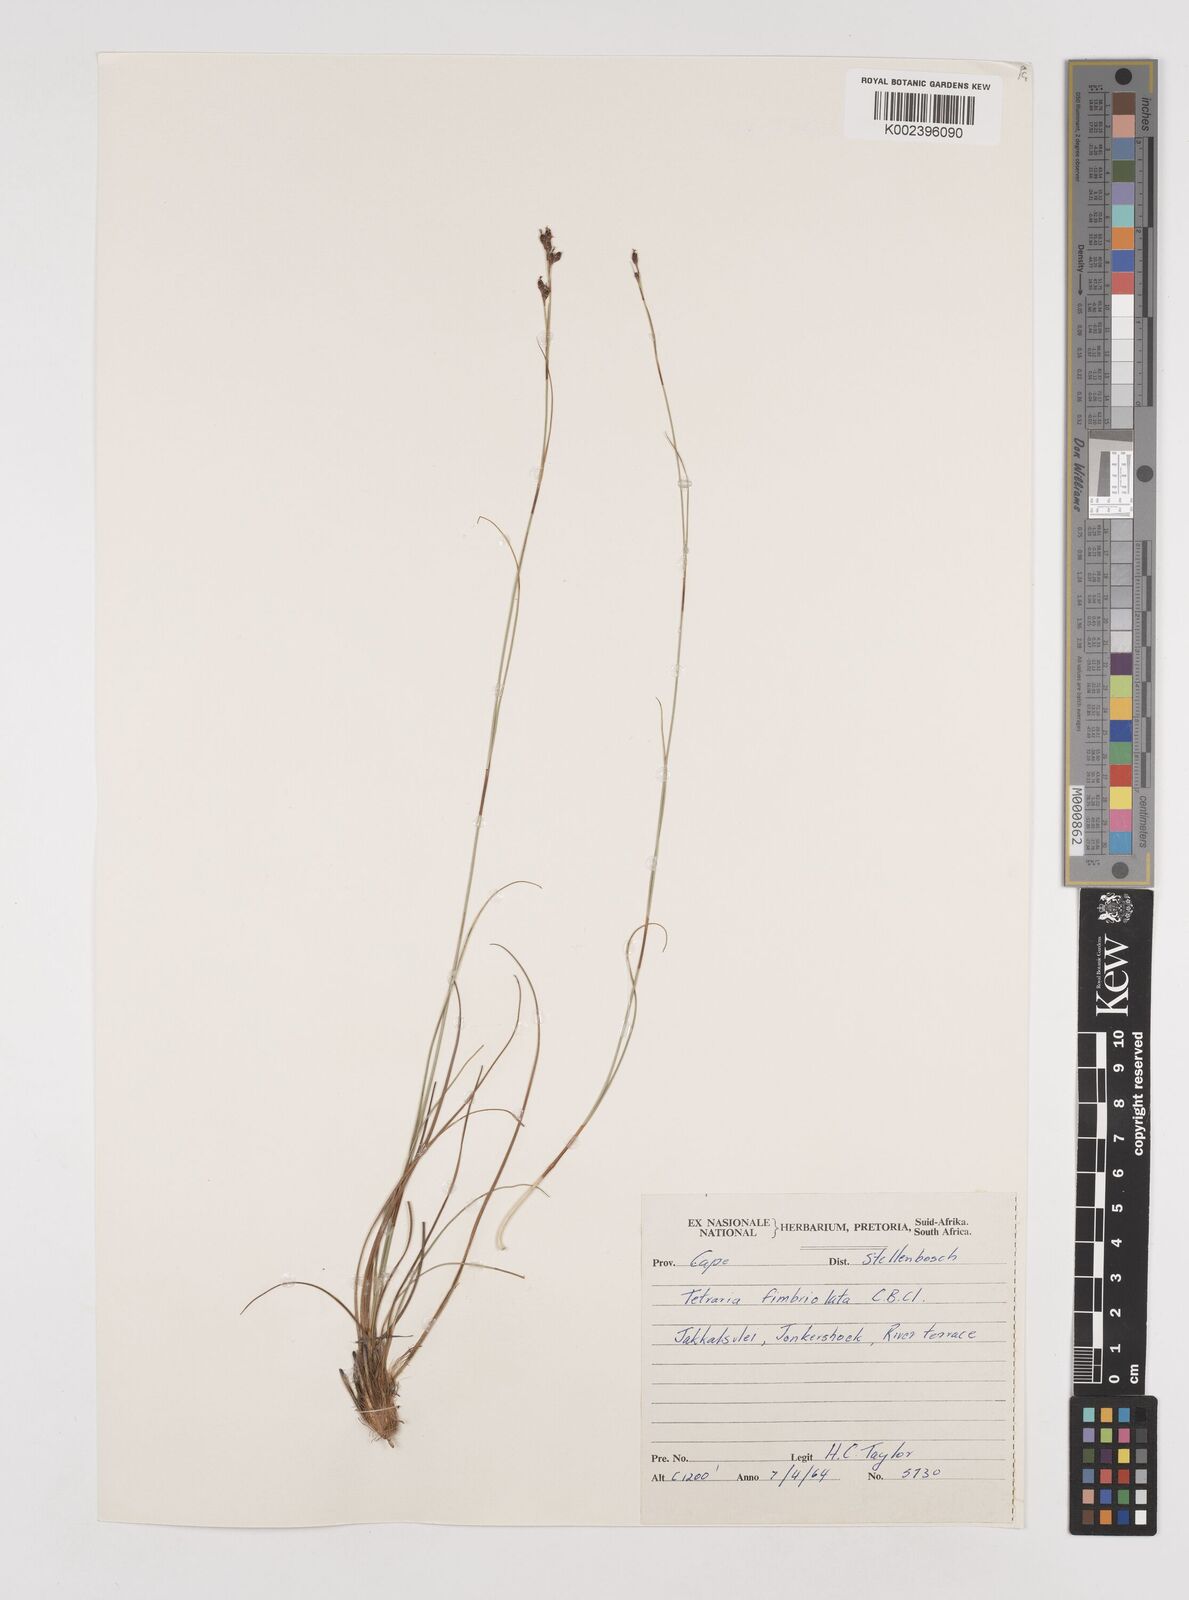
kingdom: Plantae
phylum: Tracheophyta
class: Liliopsida
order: Poales
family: Cyperaceae
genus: Tetraria
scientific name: Tetraria fimbriolata
